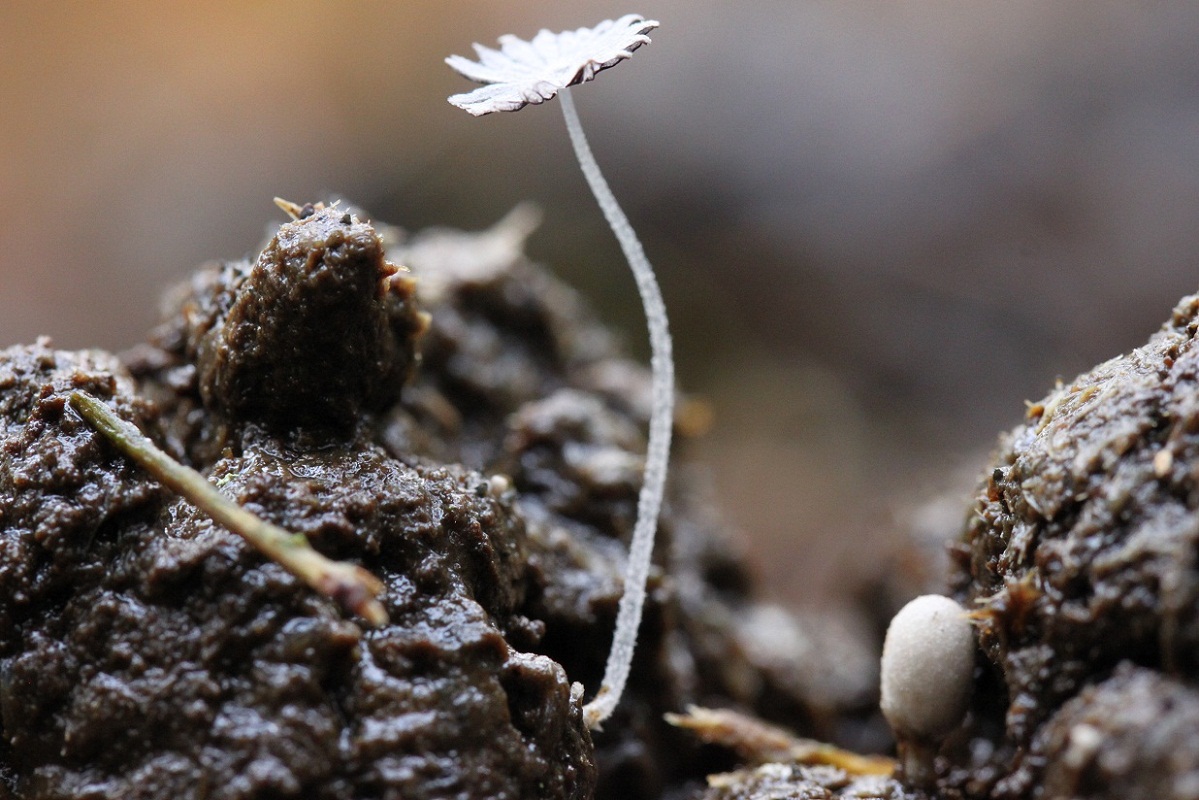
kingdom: Fungi
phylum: Basidiomycota
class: Agaricomycetes
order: Agaricales
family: Psathyrellaceae
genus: Coprinopsis
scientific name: Coprinopsis stercorea
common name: pjusket blækhat
